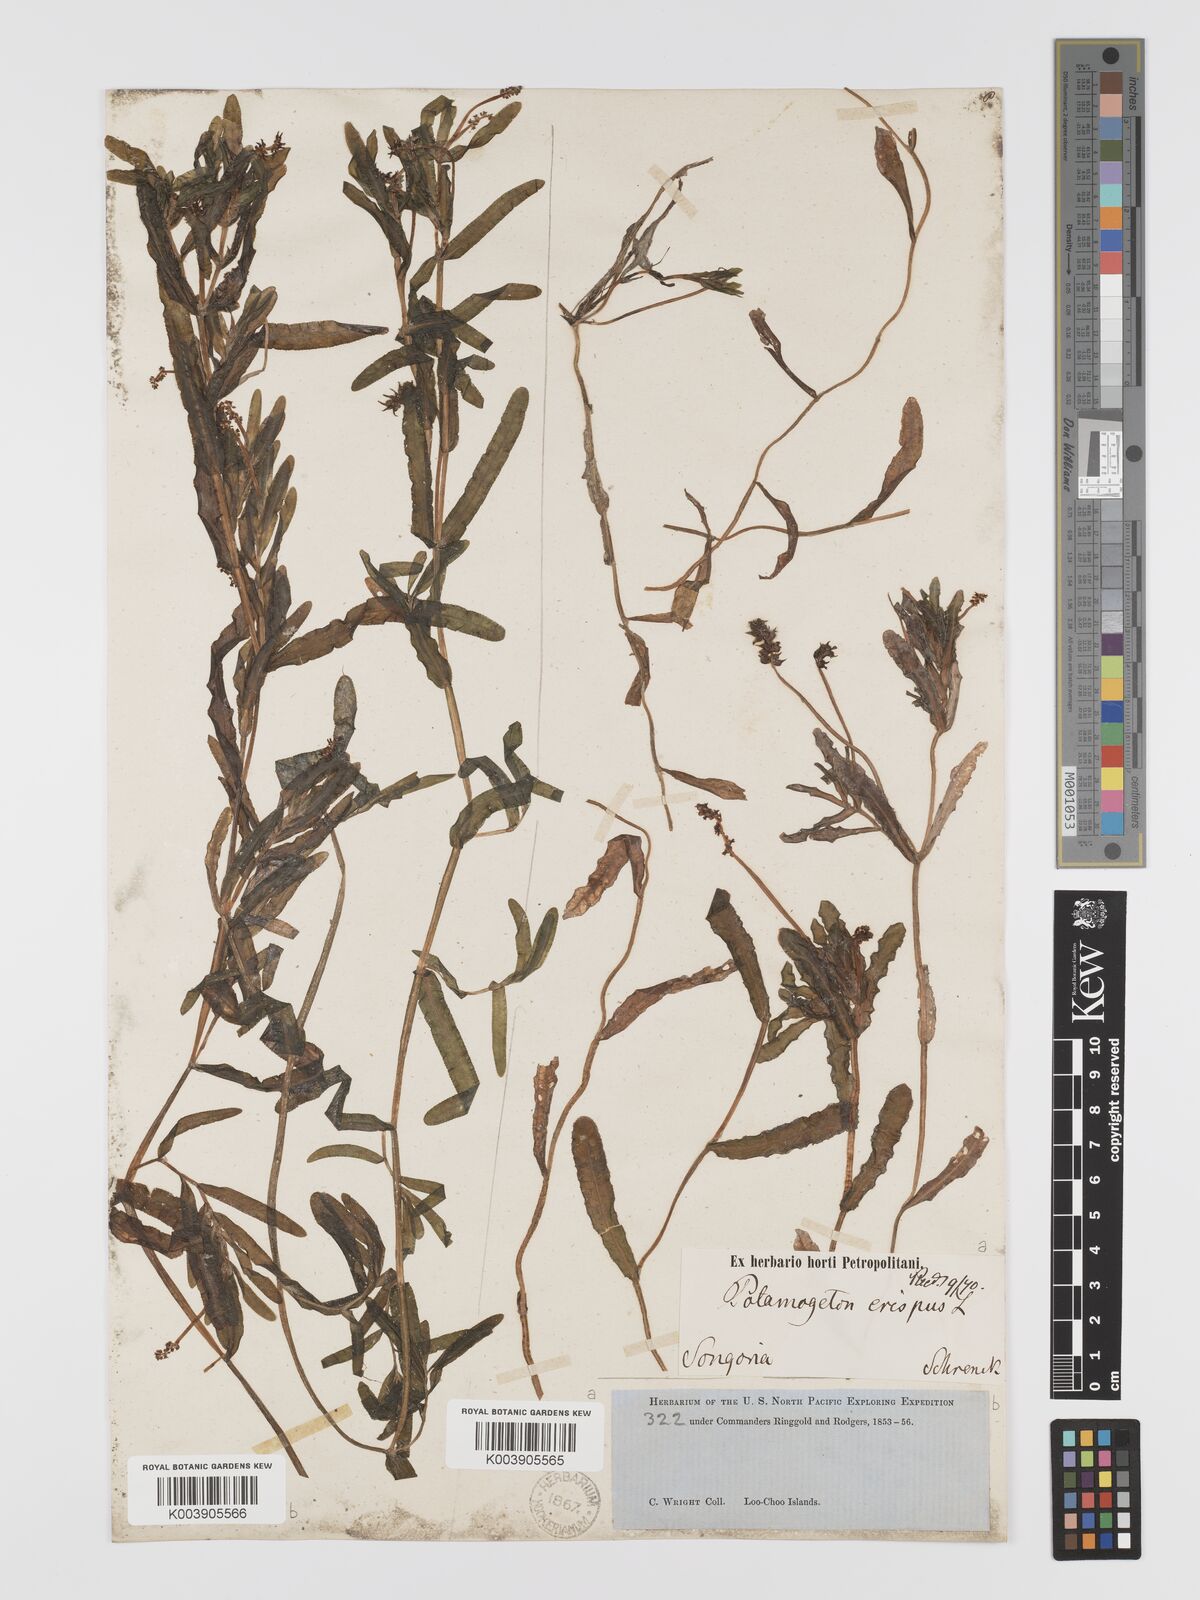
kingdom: Plantae
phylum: Tracheophyta
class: Liliopsida
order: Alismatales
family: Potamogetonaceae
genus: Potamogeton
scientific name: Potamogeton crispus
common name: Curled pondweed
